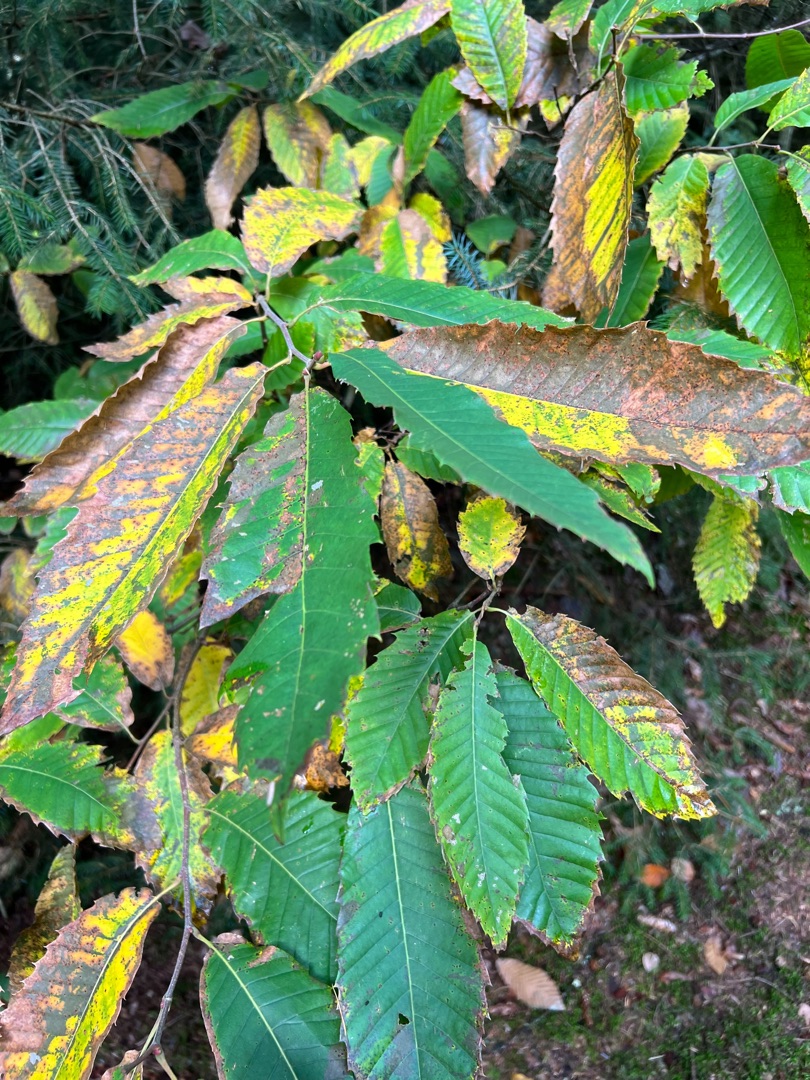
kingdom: Plantae
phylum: Tracheophyta
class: Magnoliopsida
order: Fagales
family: Fagaceae
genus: Castanea
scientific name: Castanea sativa
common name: Ægte kastanie
